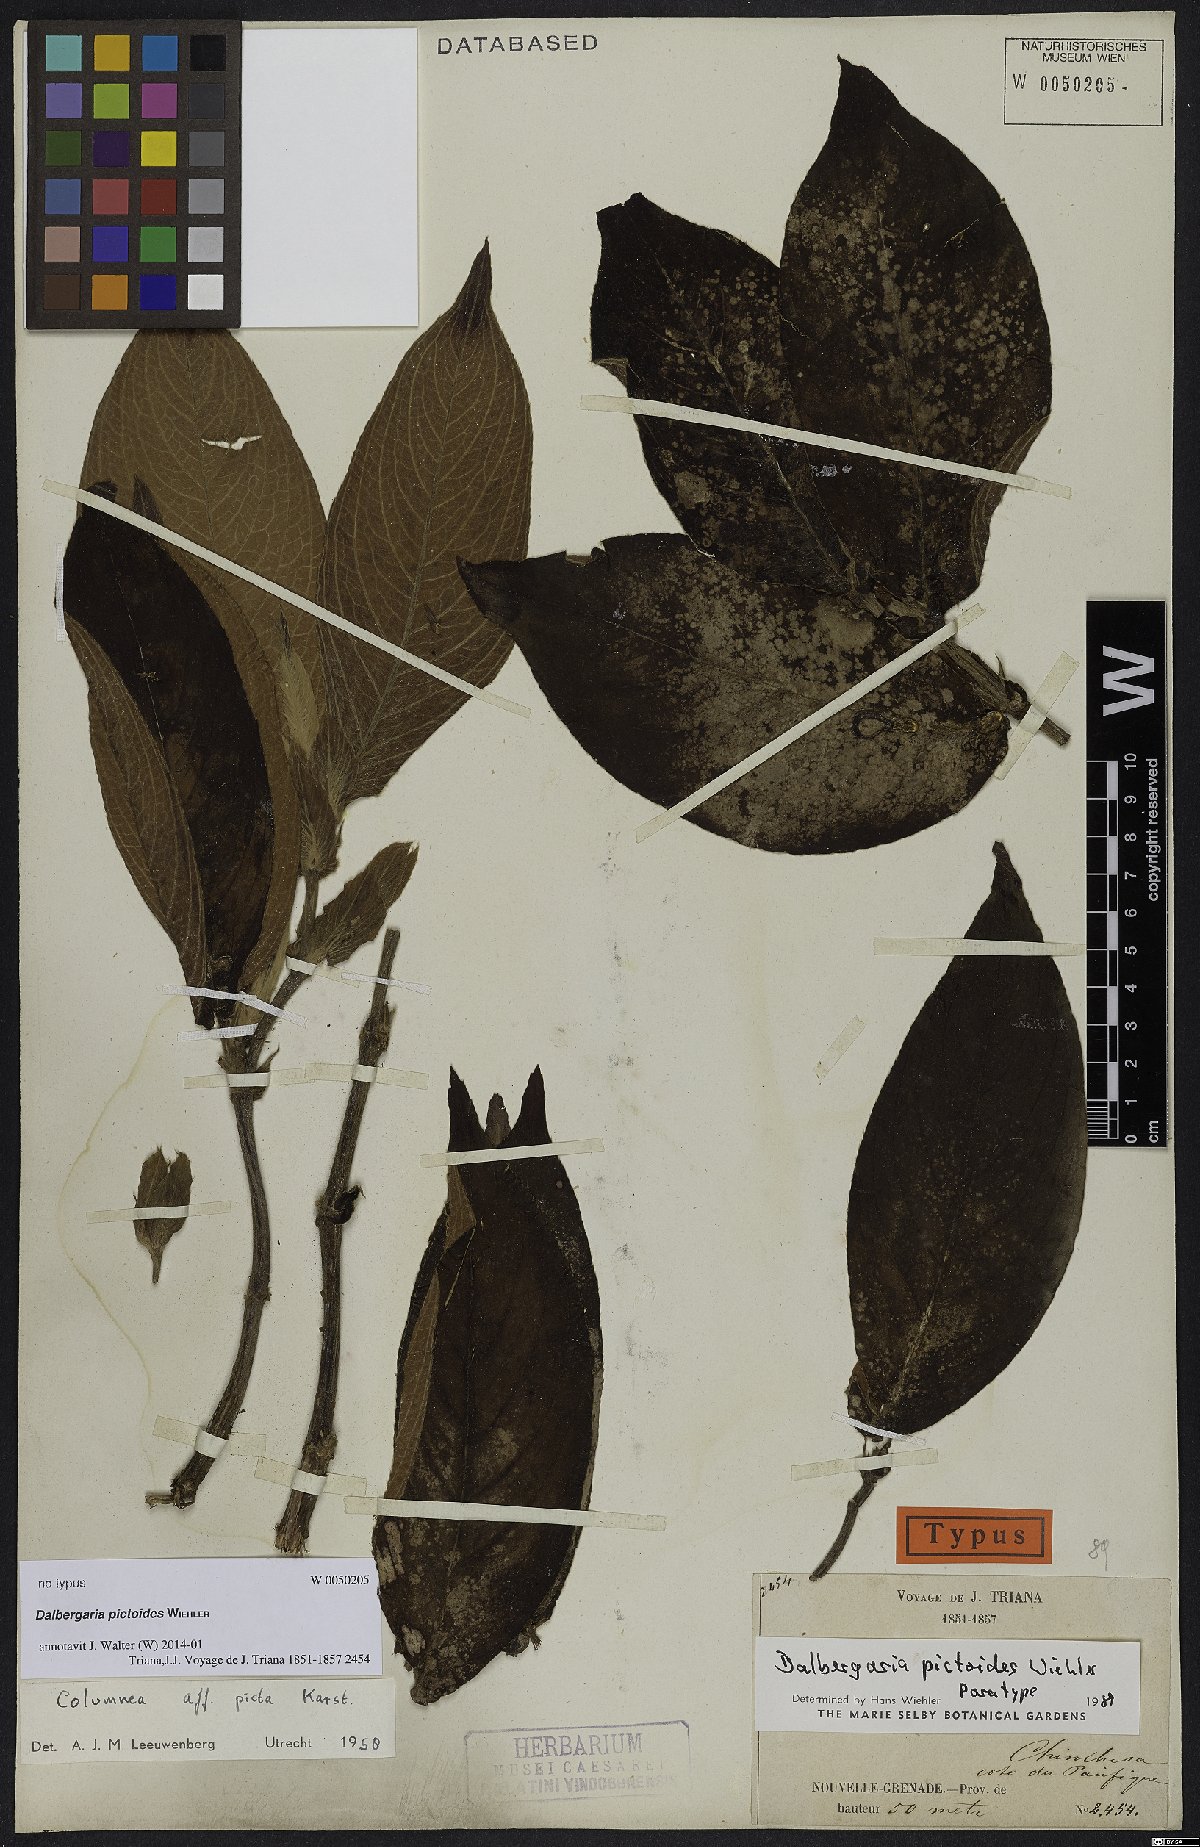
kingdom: Plantae
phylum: Tracheophyta
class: Magnoliopsida
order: Lamiales
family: Gesneriaceae
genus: Columnea
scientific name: Columnea
